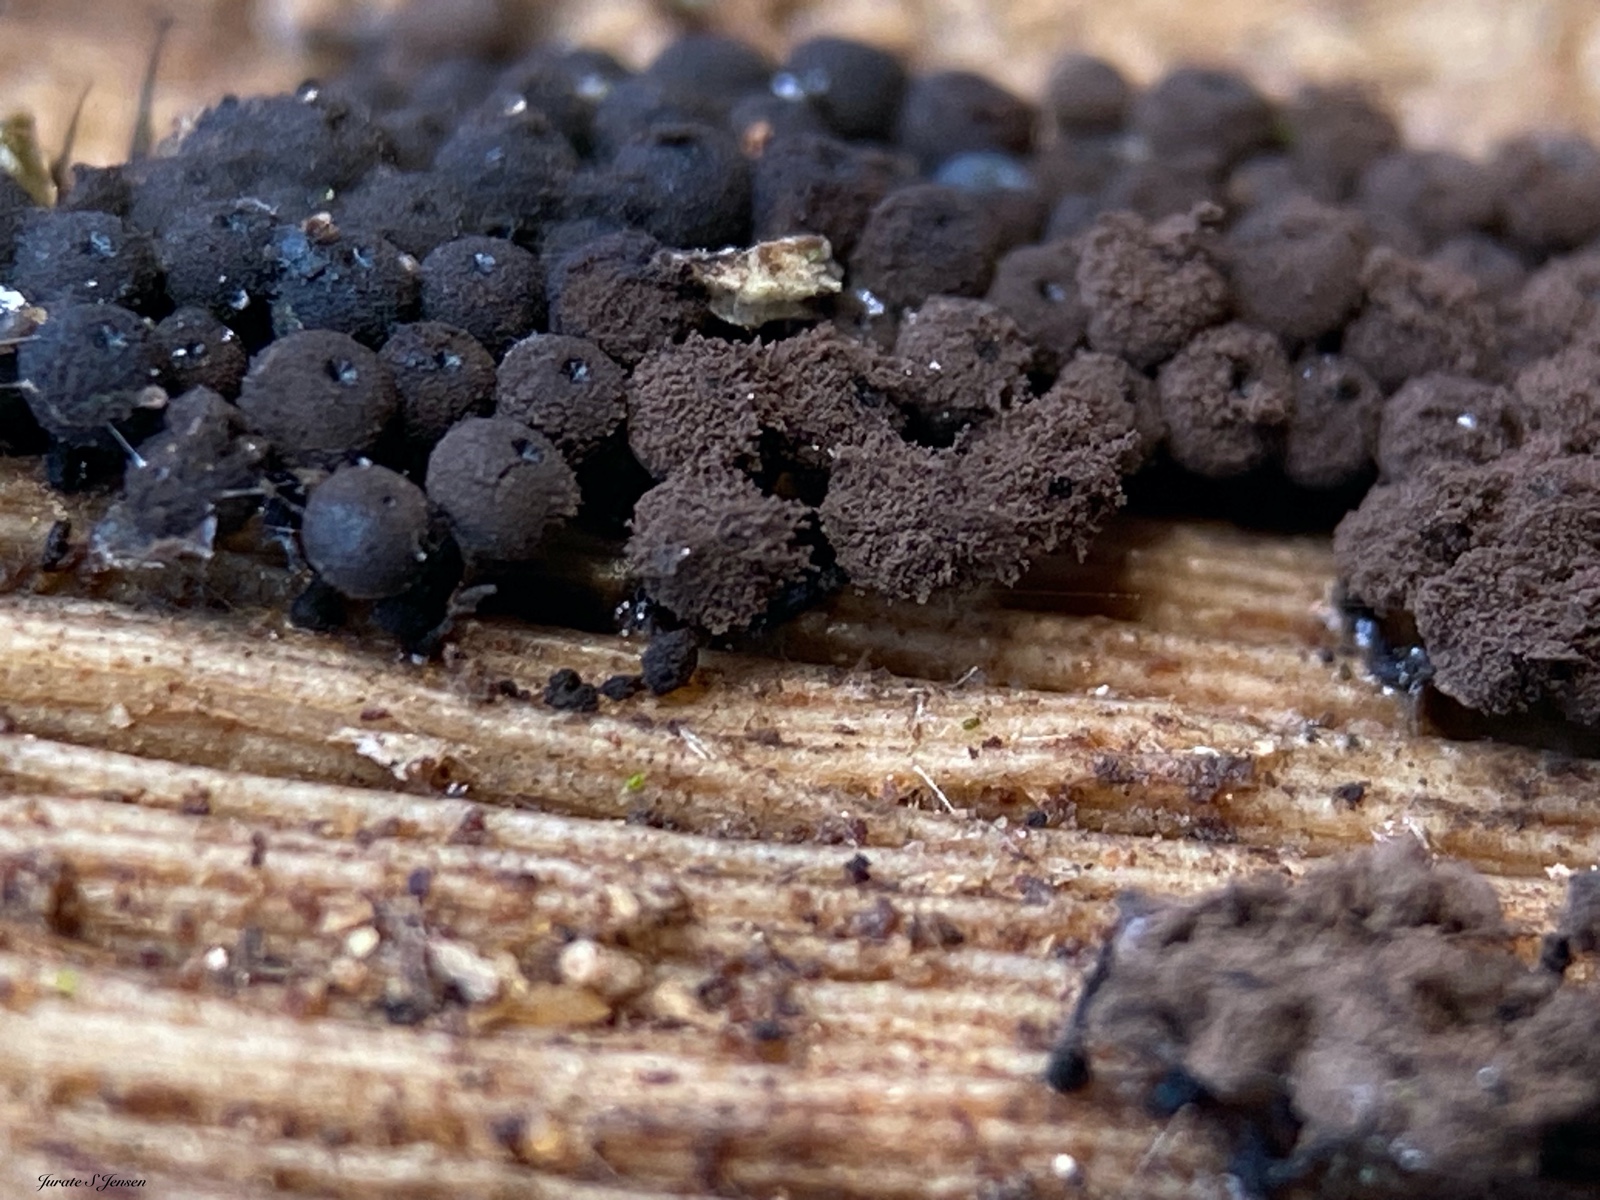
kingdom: Protozoa
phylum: Mycetozoa
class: Myxomycetes
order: Stemonitidales
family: Stemonitidaceae
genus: Enerthenema
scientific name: Enerthenema papillatum
